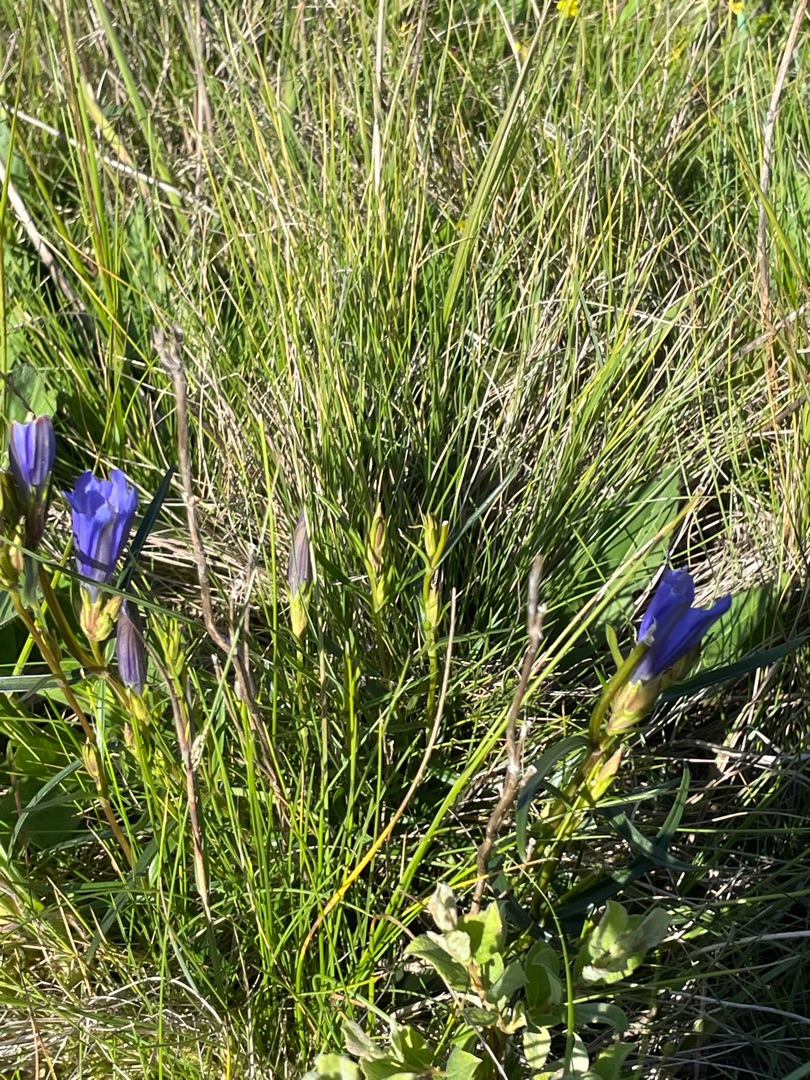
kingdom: Plantae
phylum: Tracheophyta
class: Magnoliopsida
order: Gentianales
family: Gentianaceae
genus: Gentiana
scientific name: Gentiana pneumonanthe
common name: Klokke-ensian
